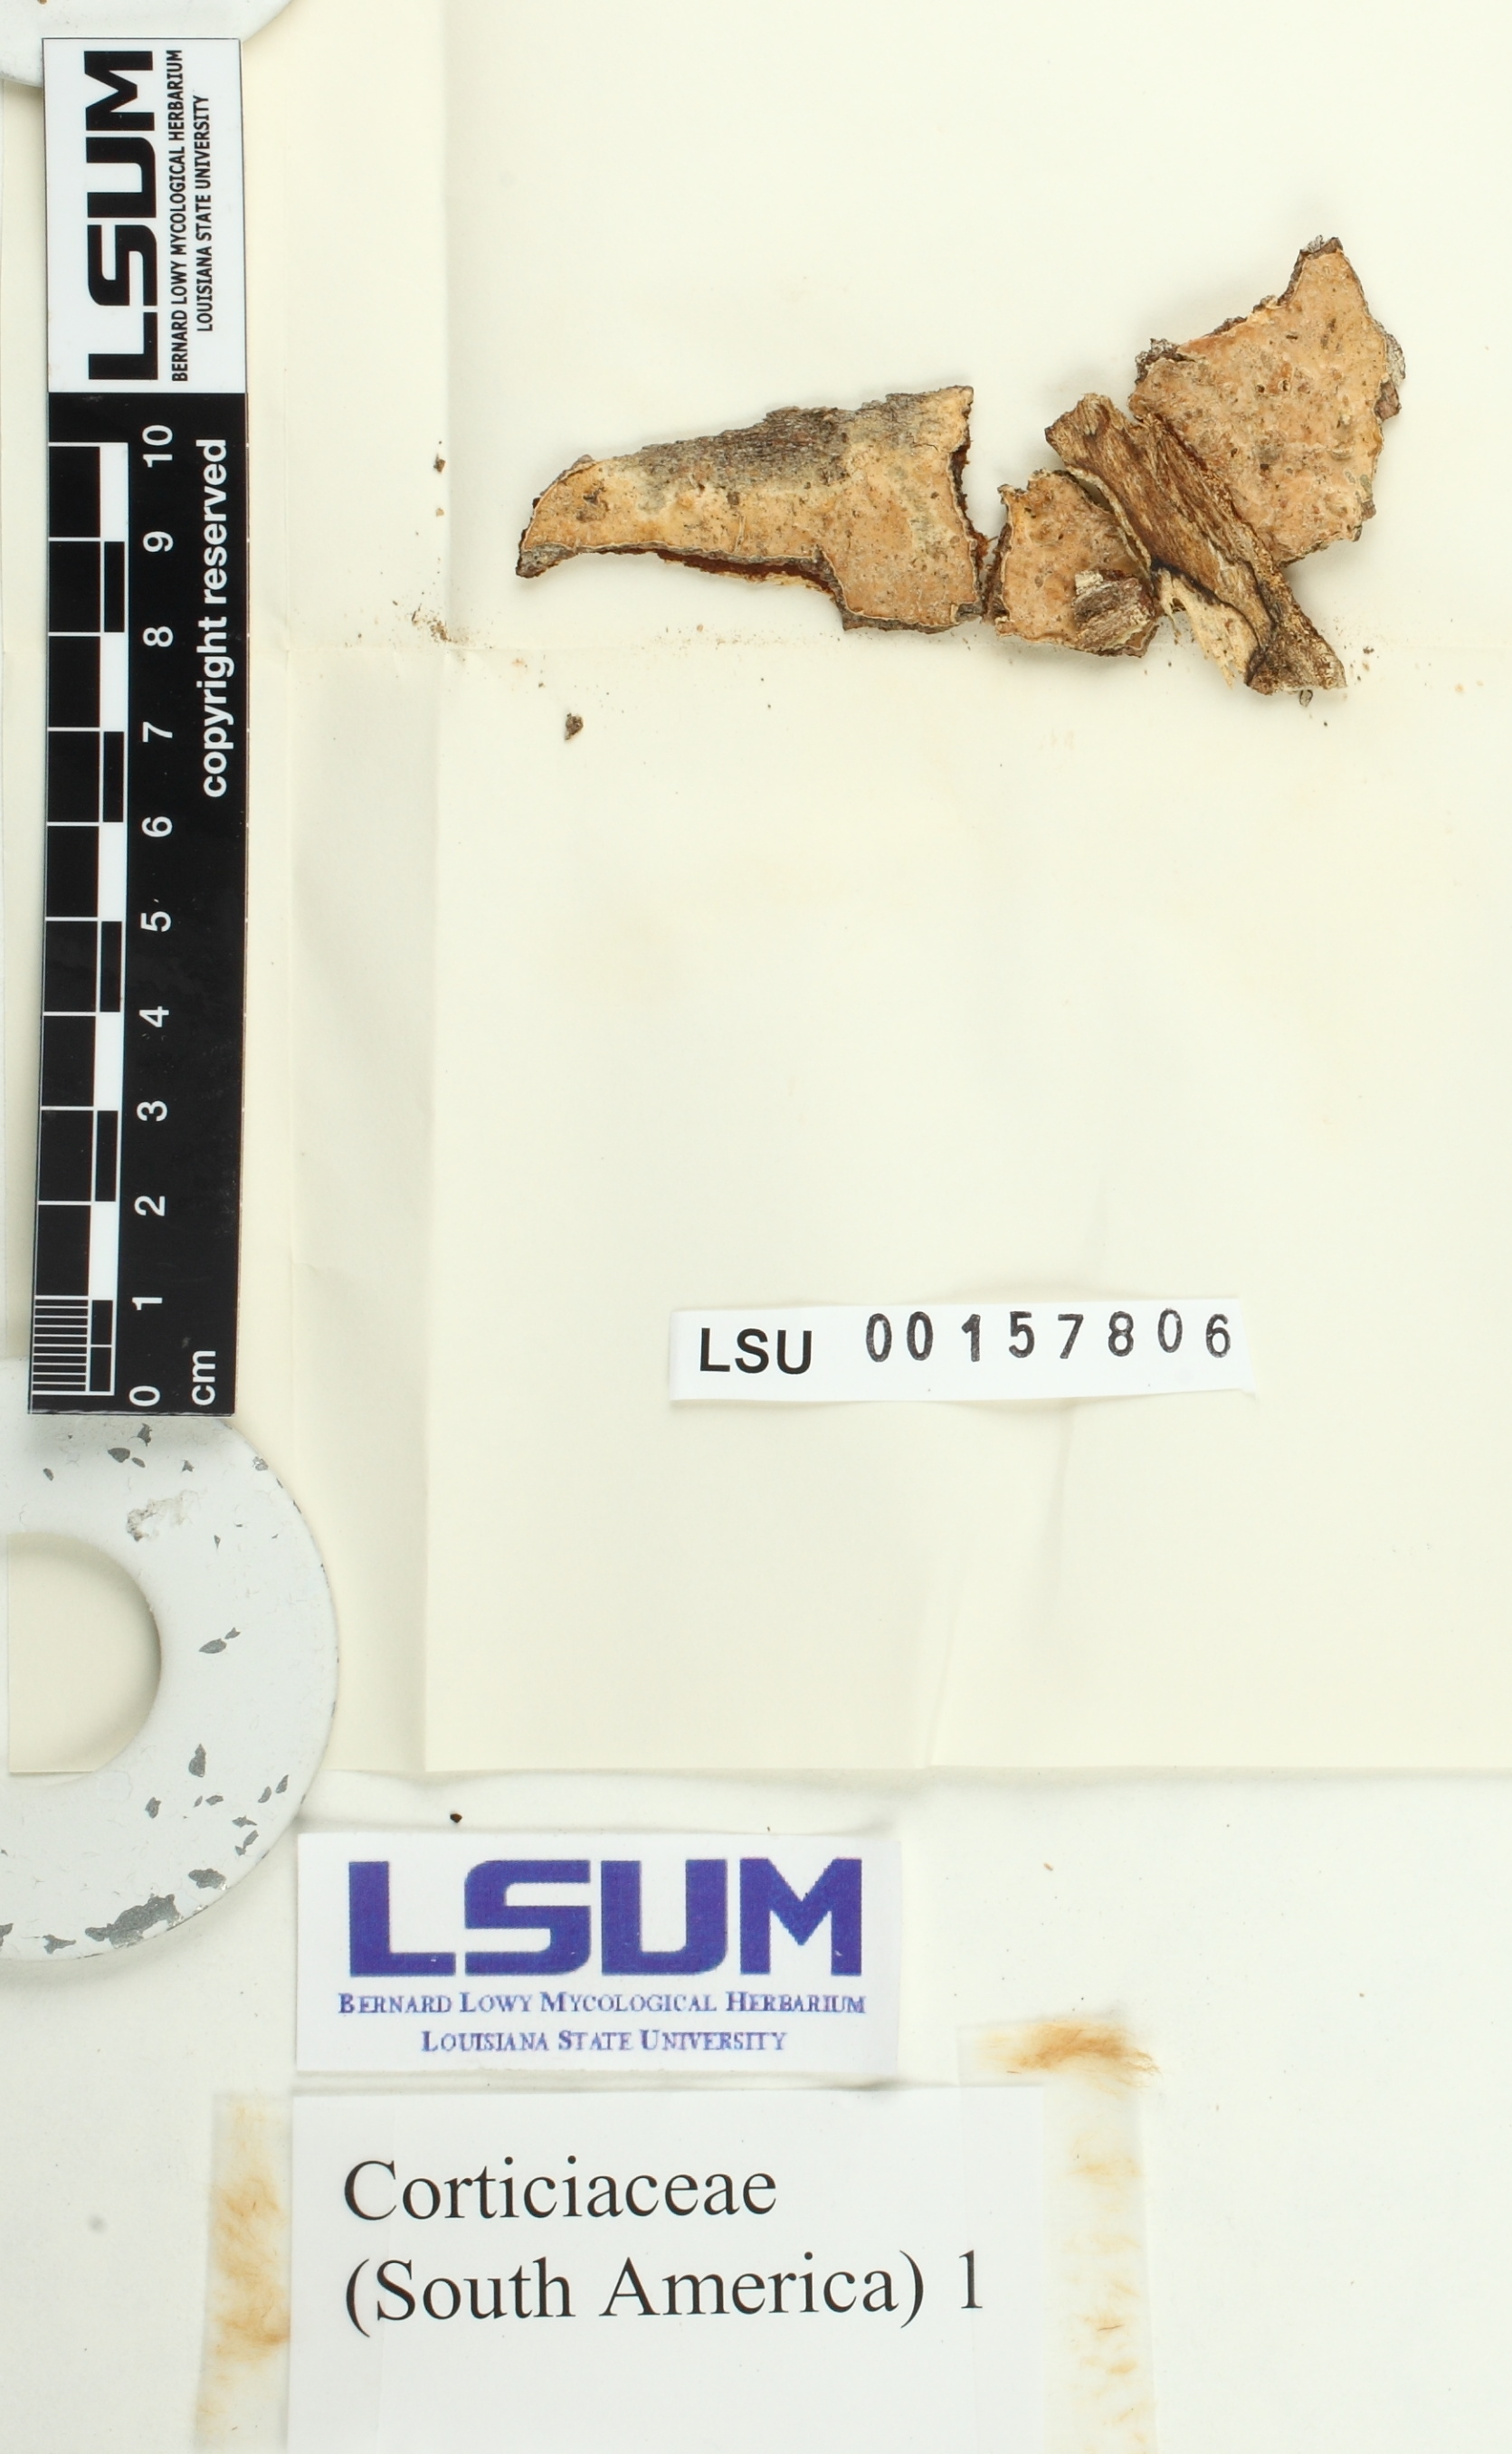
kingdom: Fungi
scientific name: Fungi
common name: Fungi
